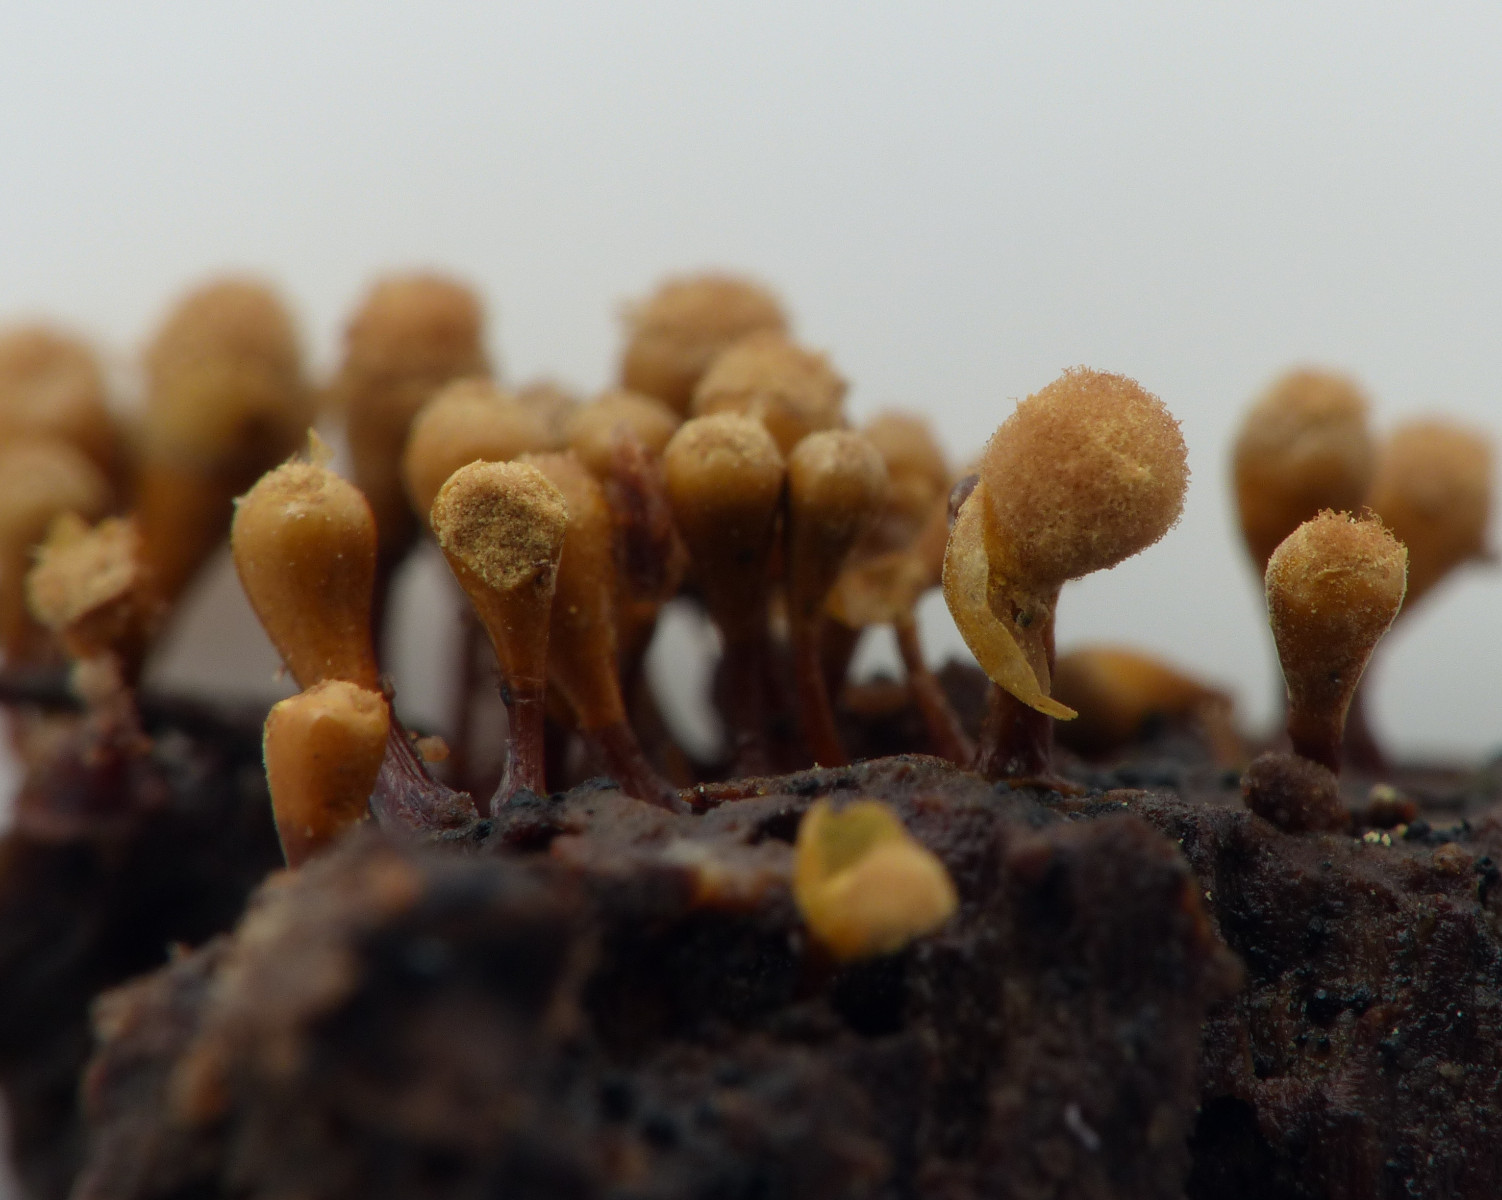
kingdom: Protozoa
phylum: Mycetozoa
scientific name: Mycetozoa
